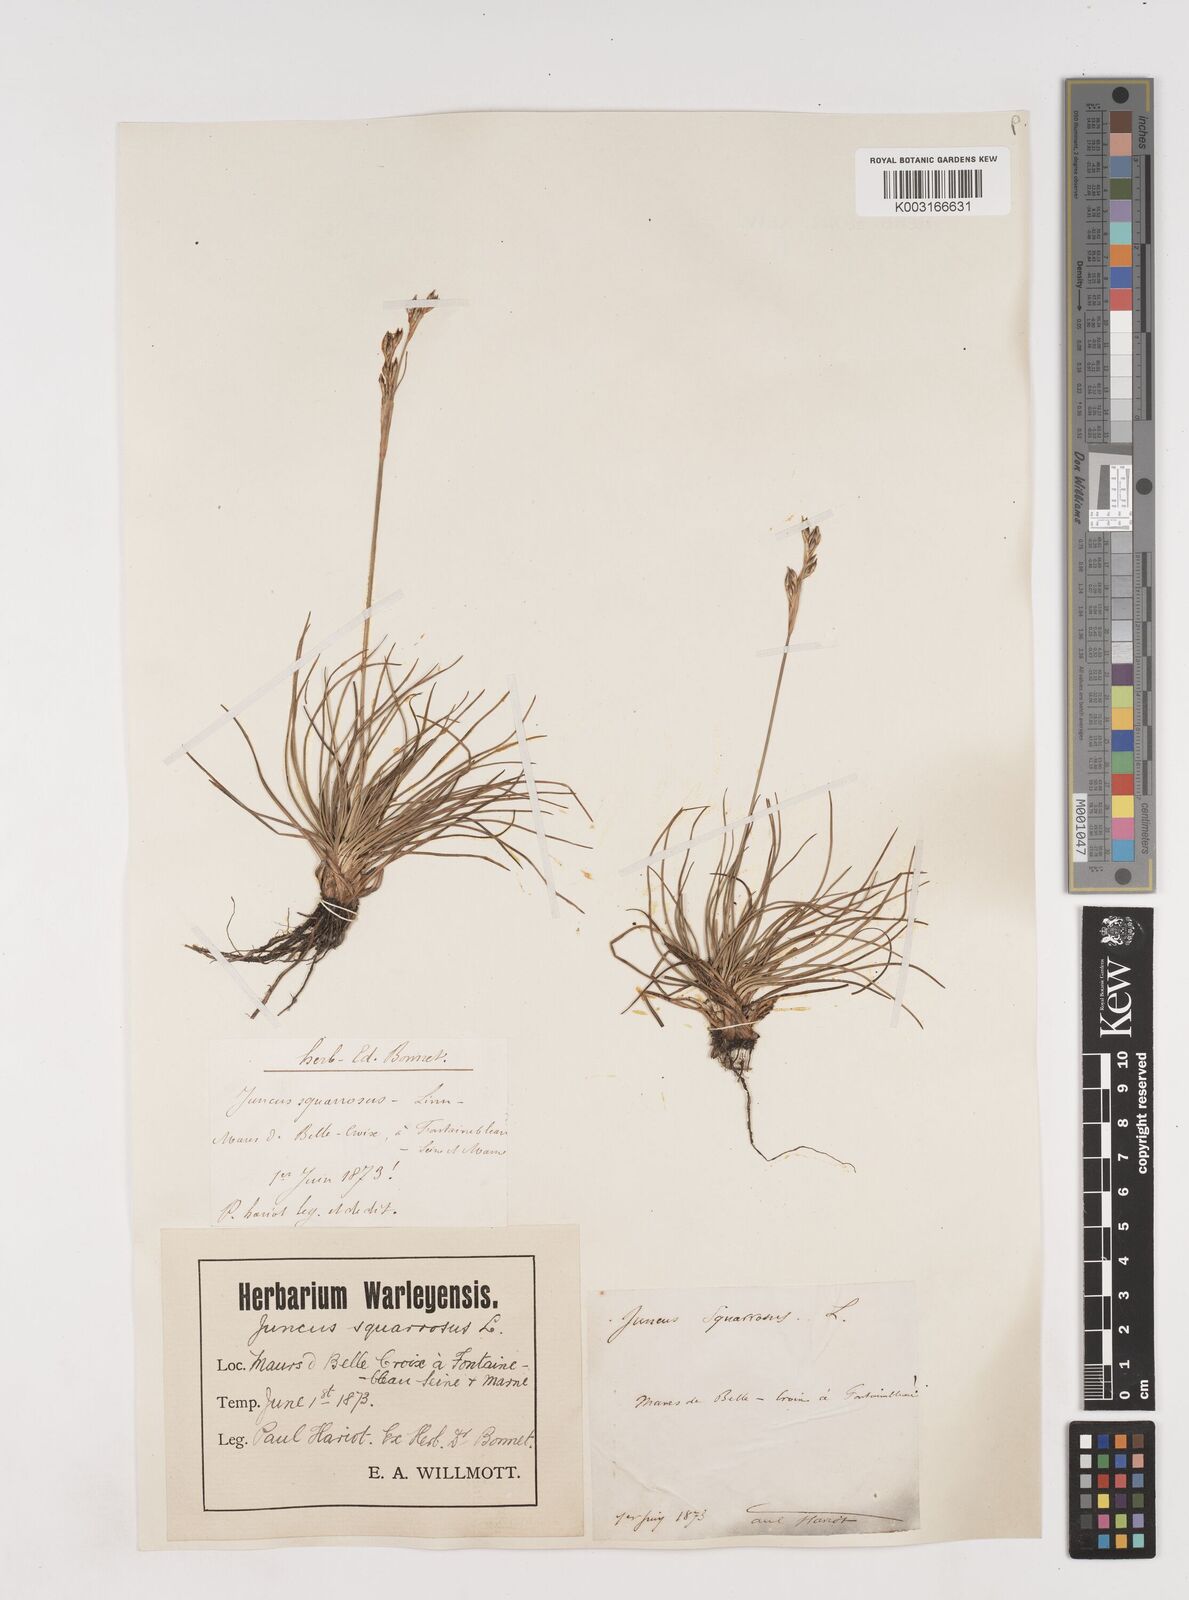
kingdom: Plantae
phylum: Tracheophyta
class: Liliopsida
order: Poales
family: Juncaceae
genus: Juncus
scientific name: Juncus squarrosus
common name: Heath rush
